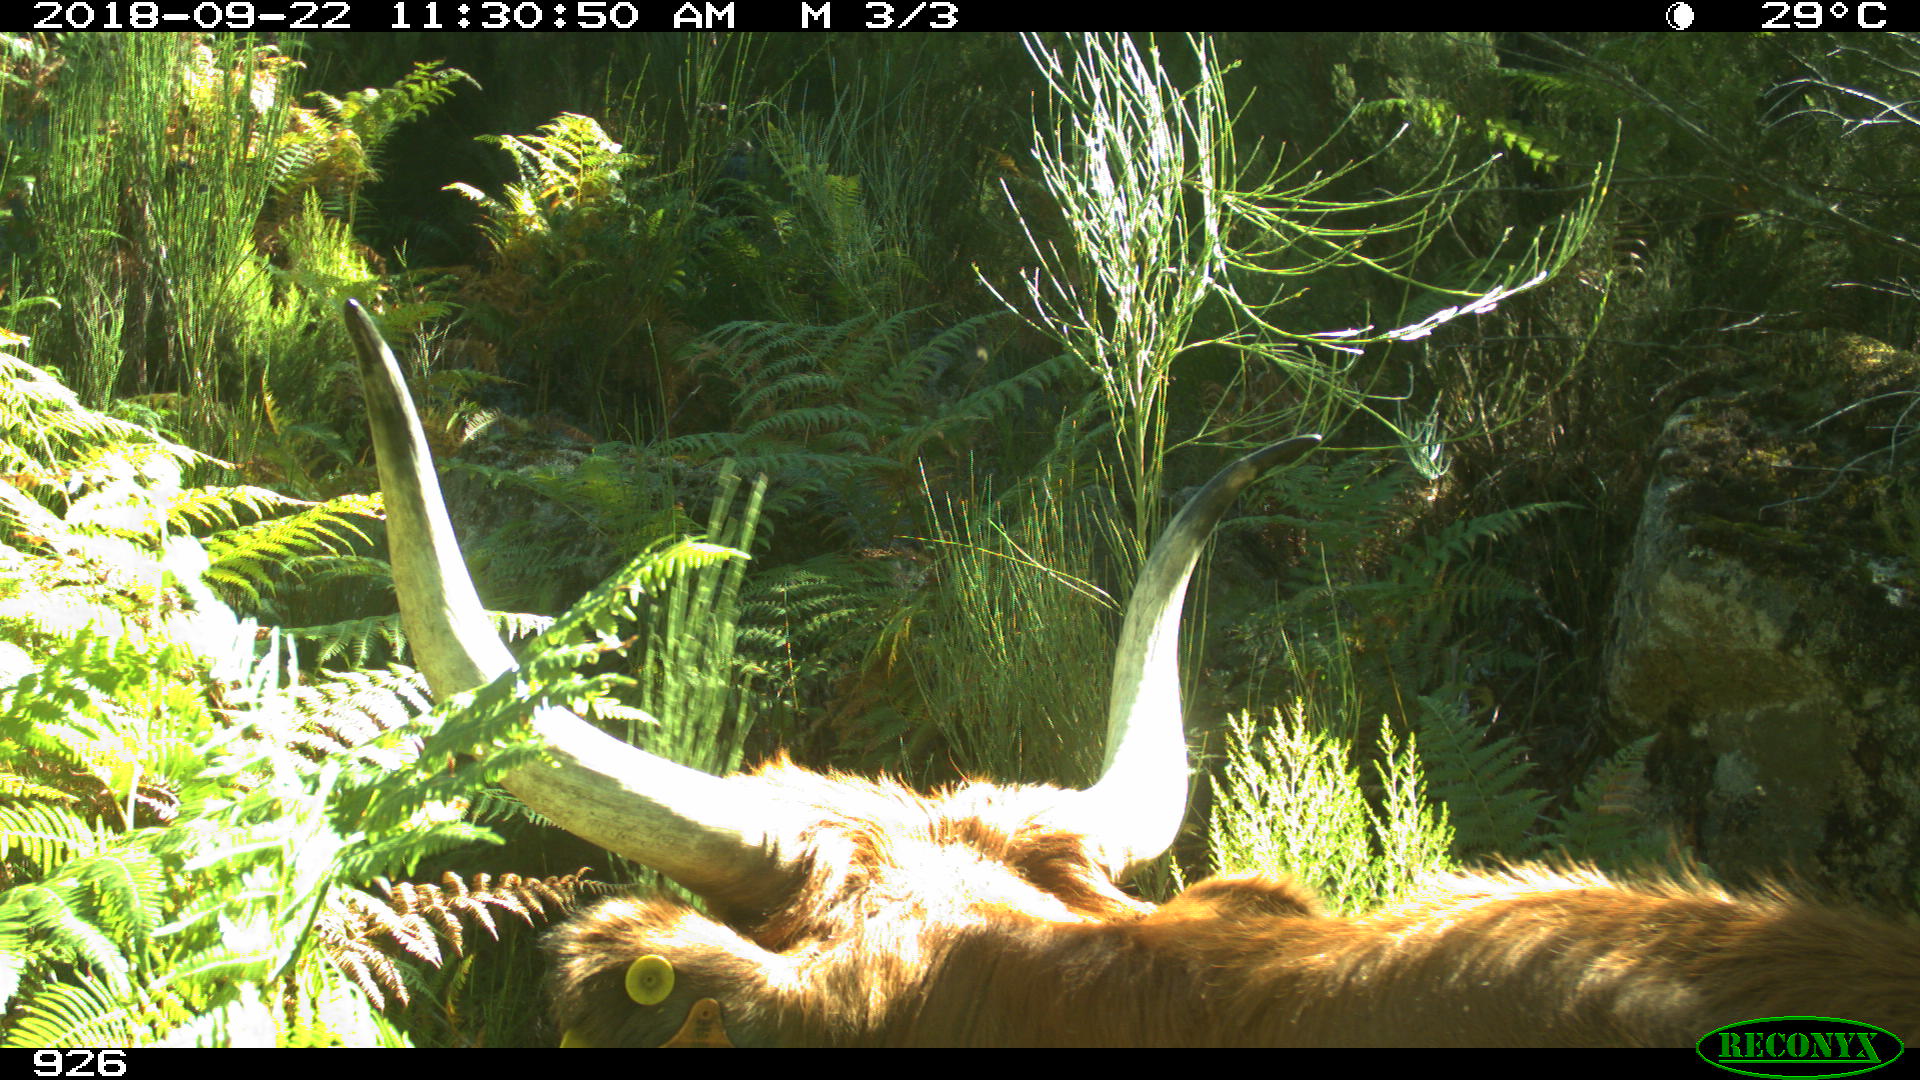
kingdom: Animalia
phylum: Chordata
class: Mammalia
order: Artiodactyla
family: Bovidae
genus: Bos
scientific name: Bos taurus
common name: Domesticated cattle
